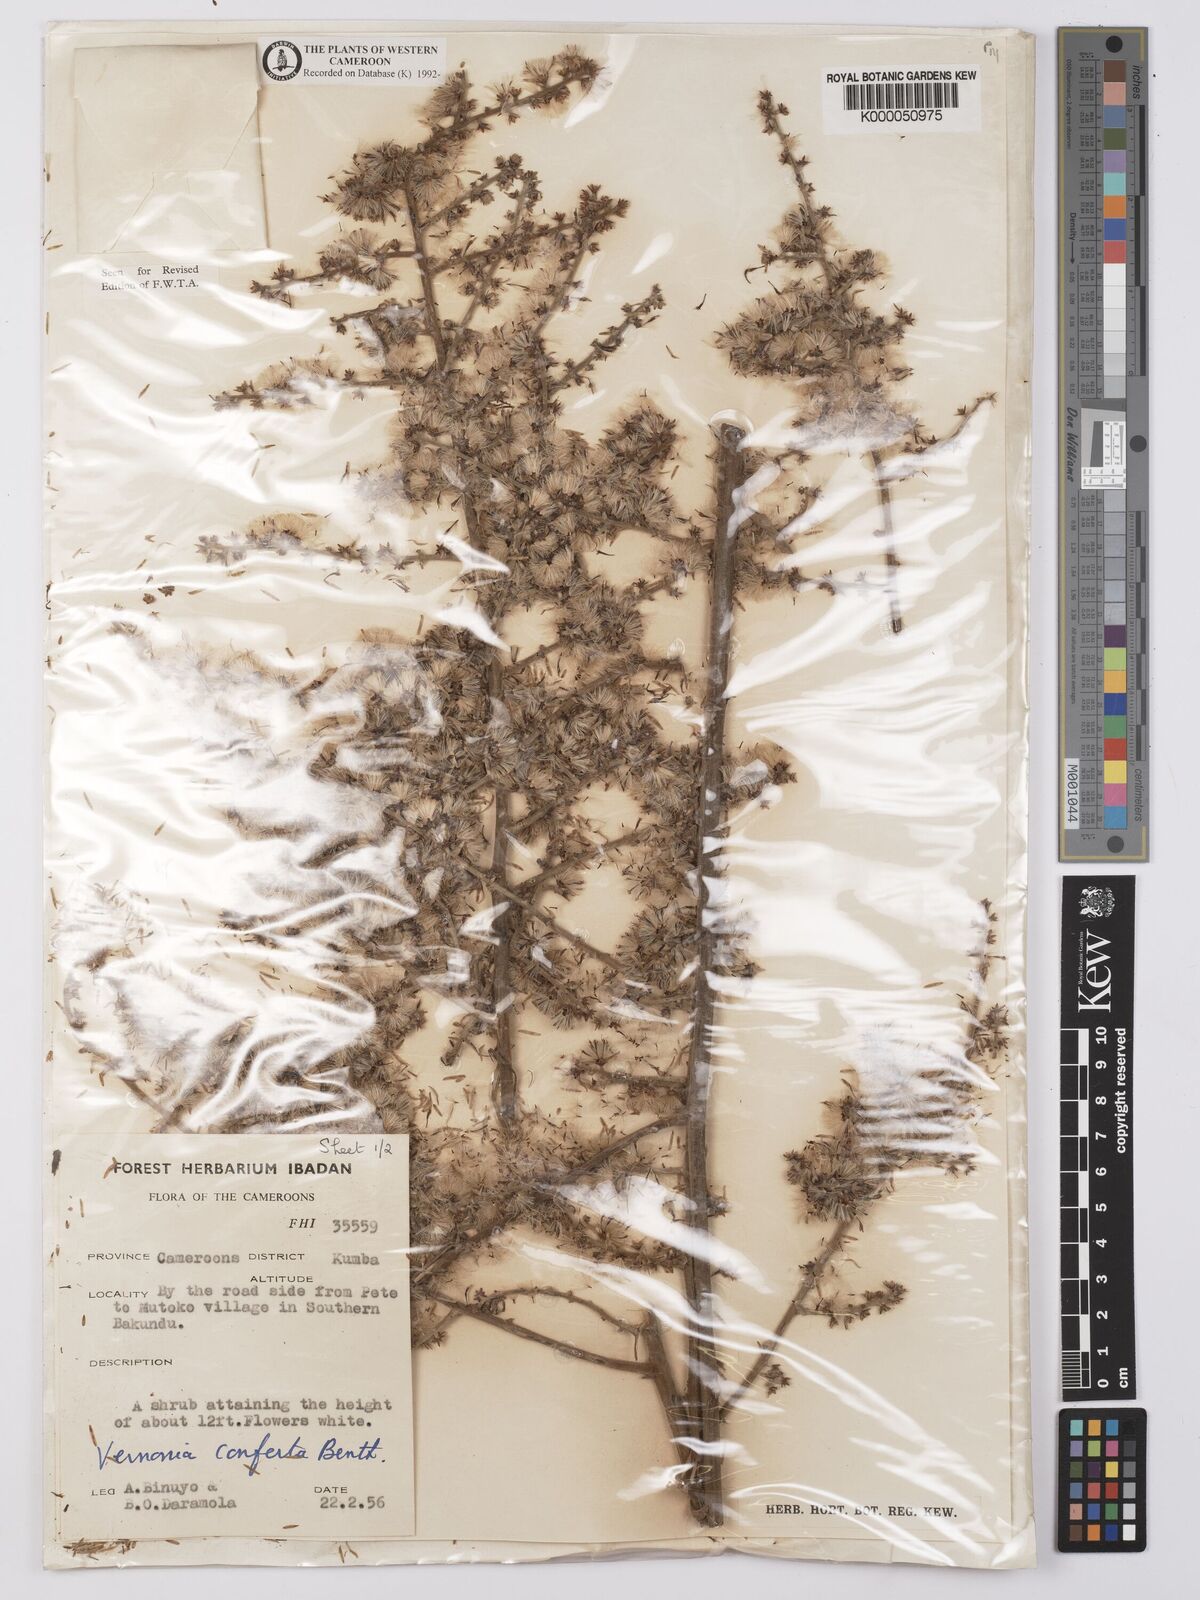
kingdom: Plantae
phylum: Tracheophyta
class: Magnoliopsida
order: Asterales
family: Asteraceae
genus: Brenandendron
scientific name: Brenandendron donianum
